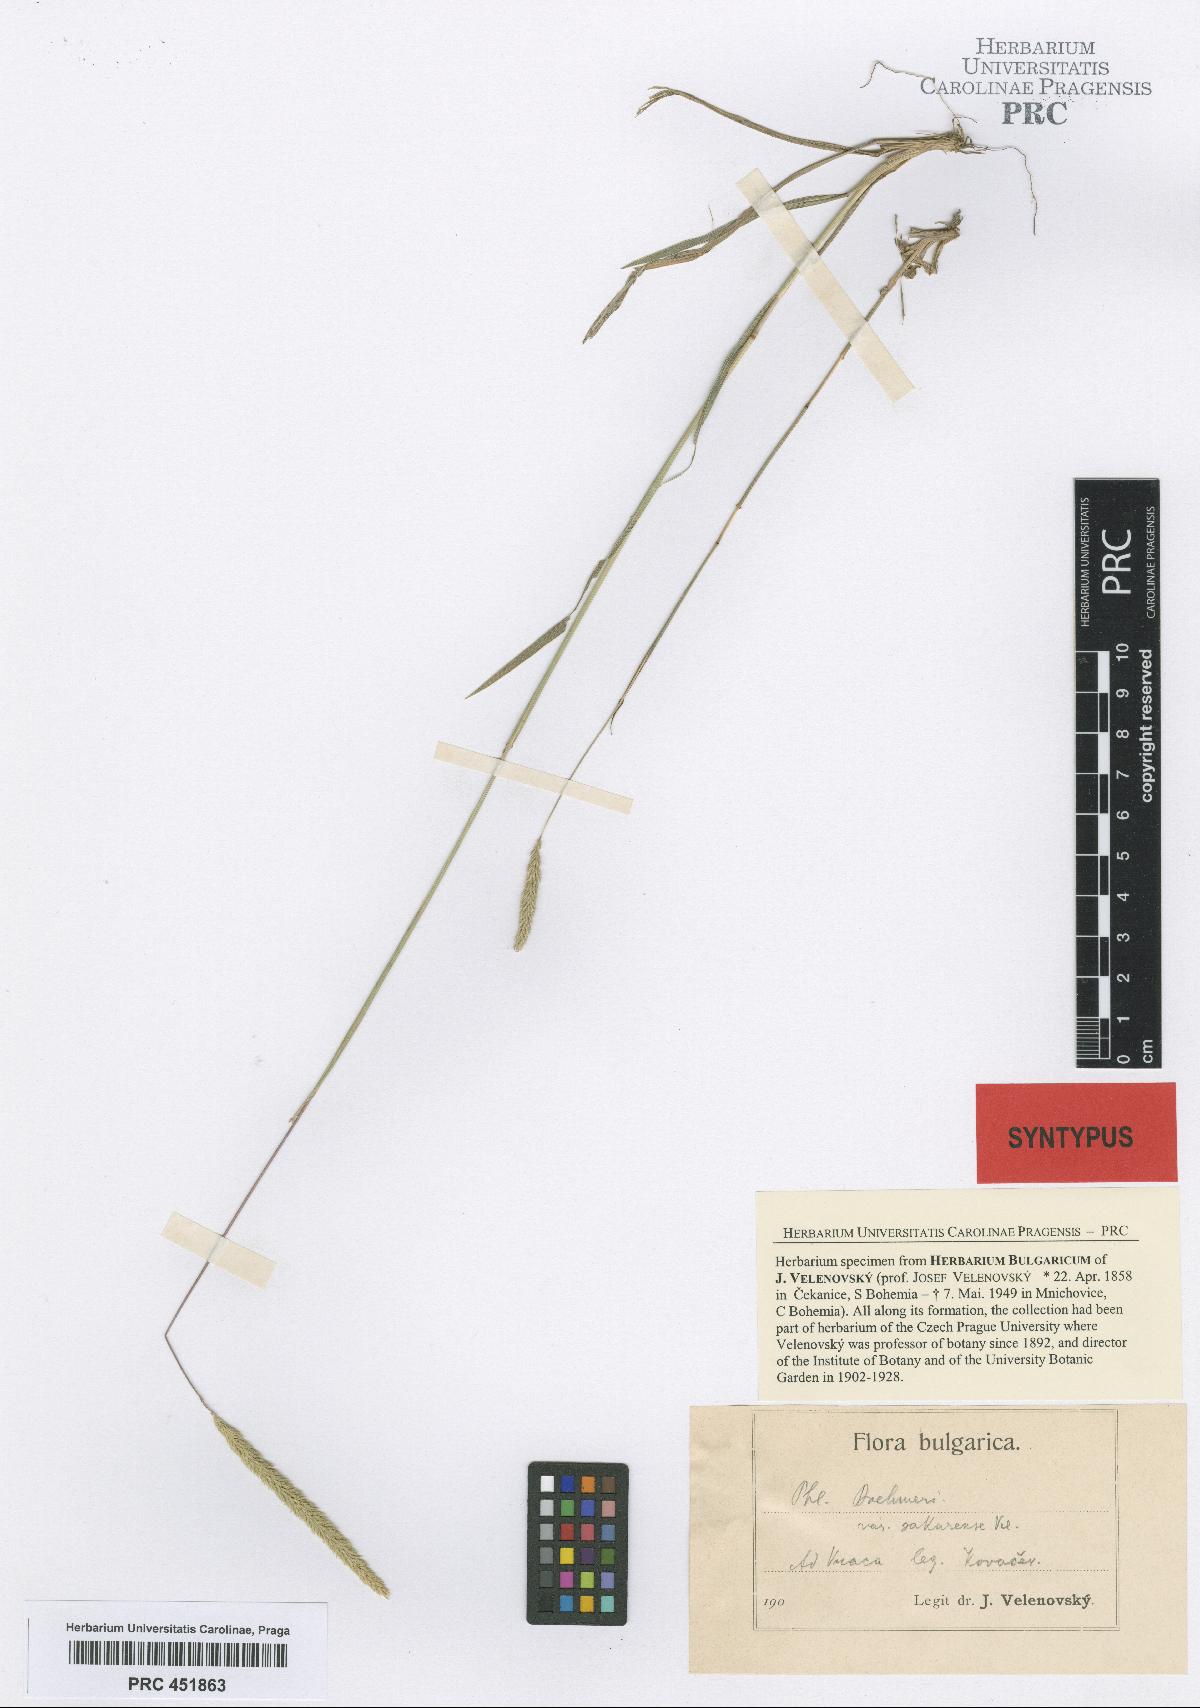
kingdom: Plantae
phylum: Tracheophyta
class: Liliopsida
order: Poales
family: Poaceae
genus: Phleum
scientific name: Phleum phleoides
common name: Purple-stem cat's-tail
